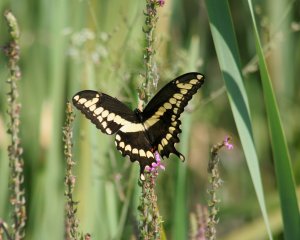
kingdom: Animalia
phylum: Arthropoda
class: Insecta
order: Lepidoptera
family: Papilionidae
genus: Papilio
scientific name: Papilio cresphontes
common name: Eastern Giant Swallowtail
